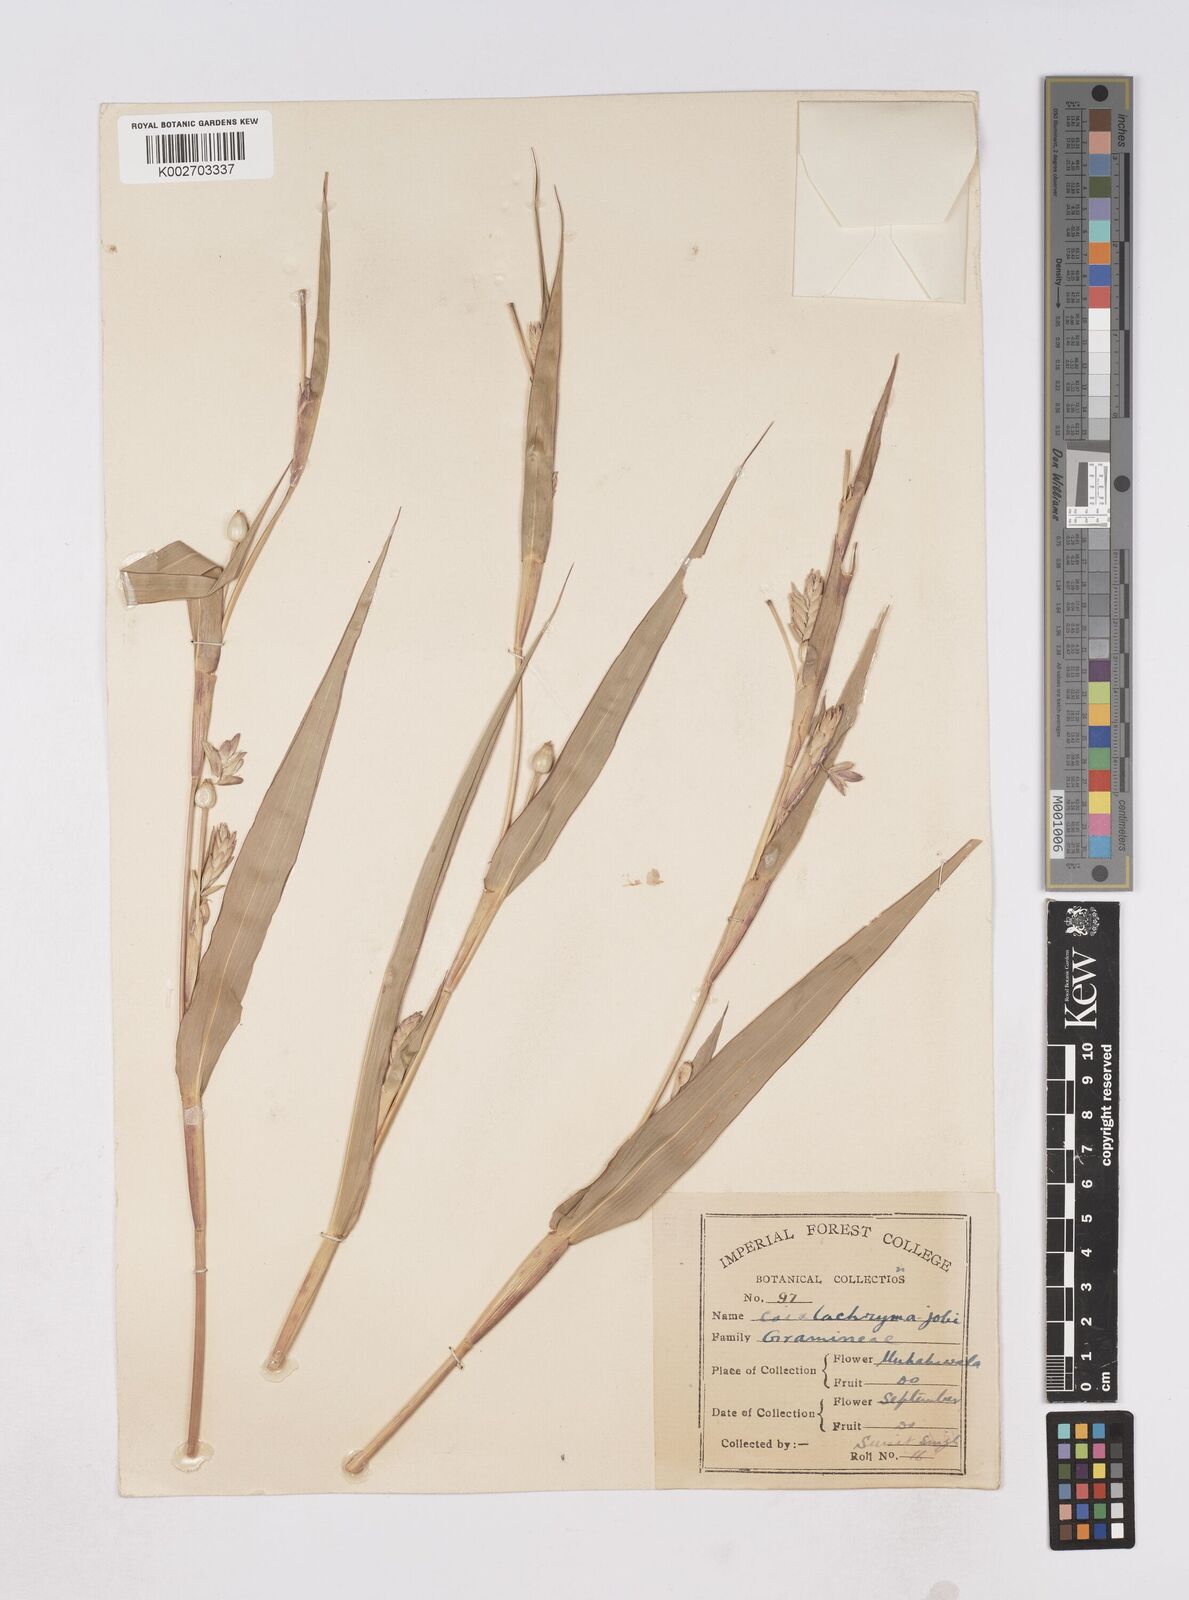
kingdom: Plantae
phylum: Tracheophyta
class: Liliopsida
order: Poales
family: Poaceae
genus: Coix
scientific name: Coix lacryma-jobi
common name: Job's tears
